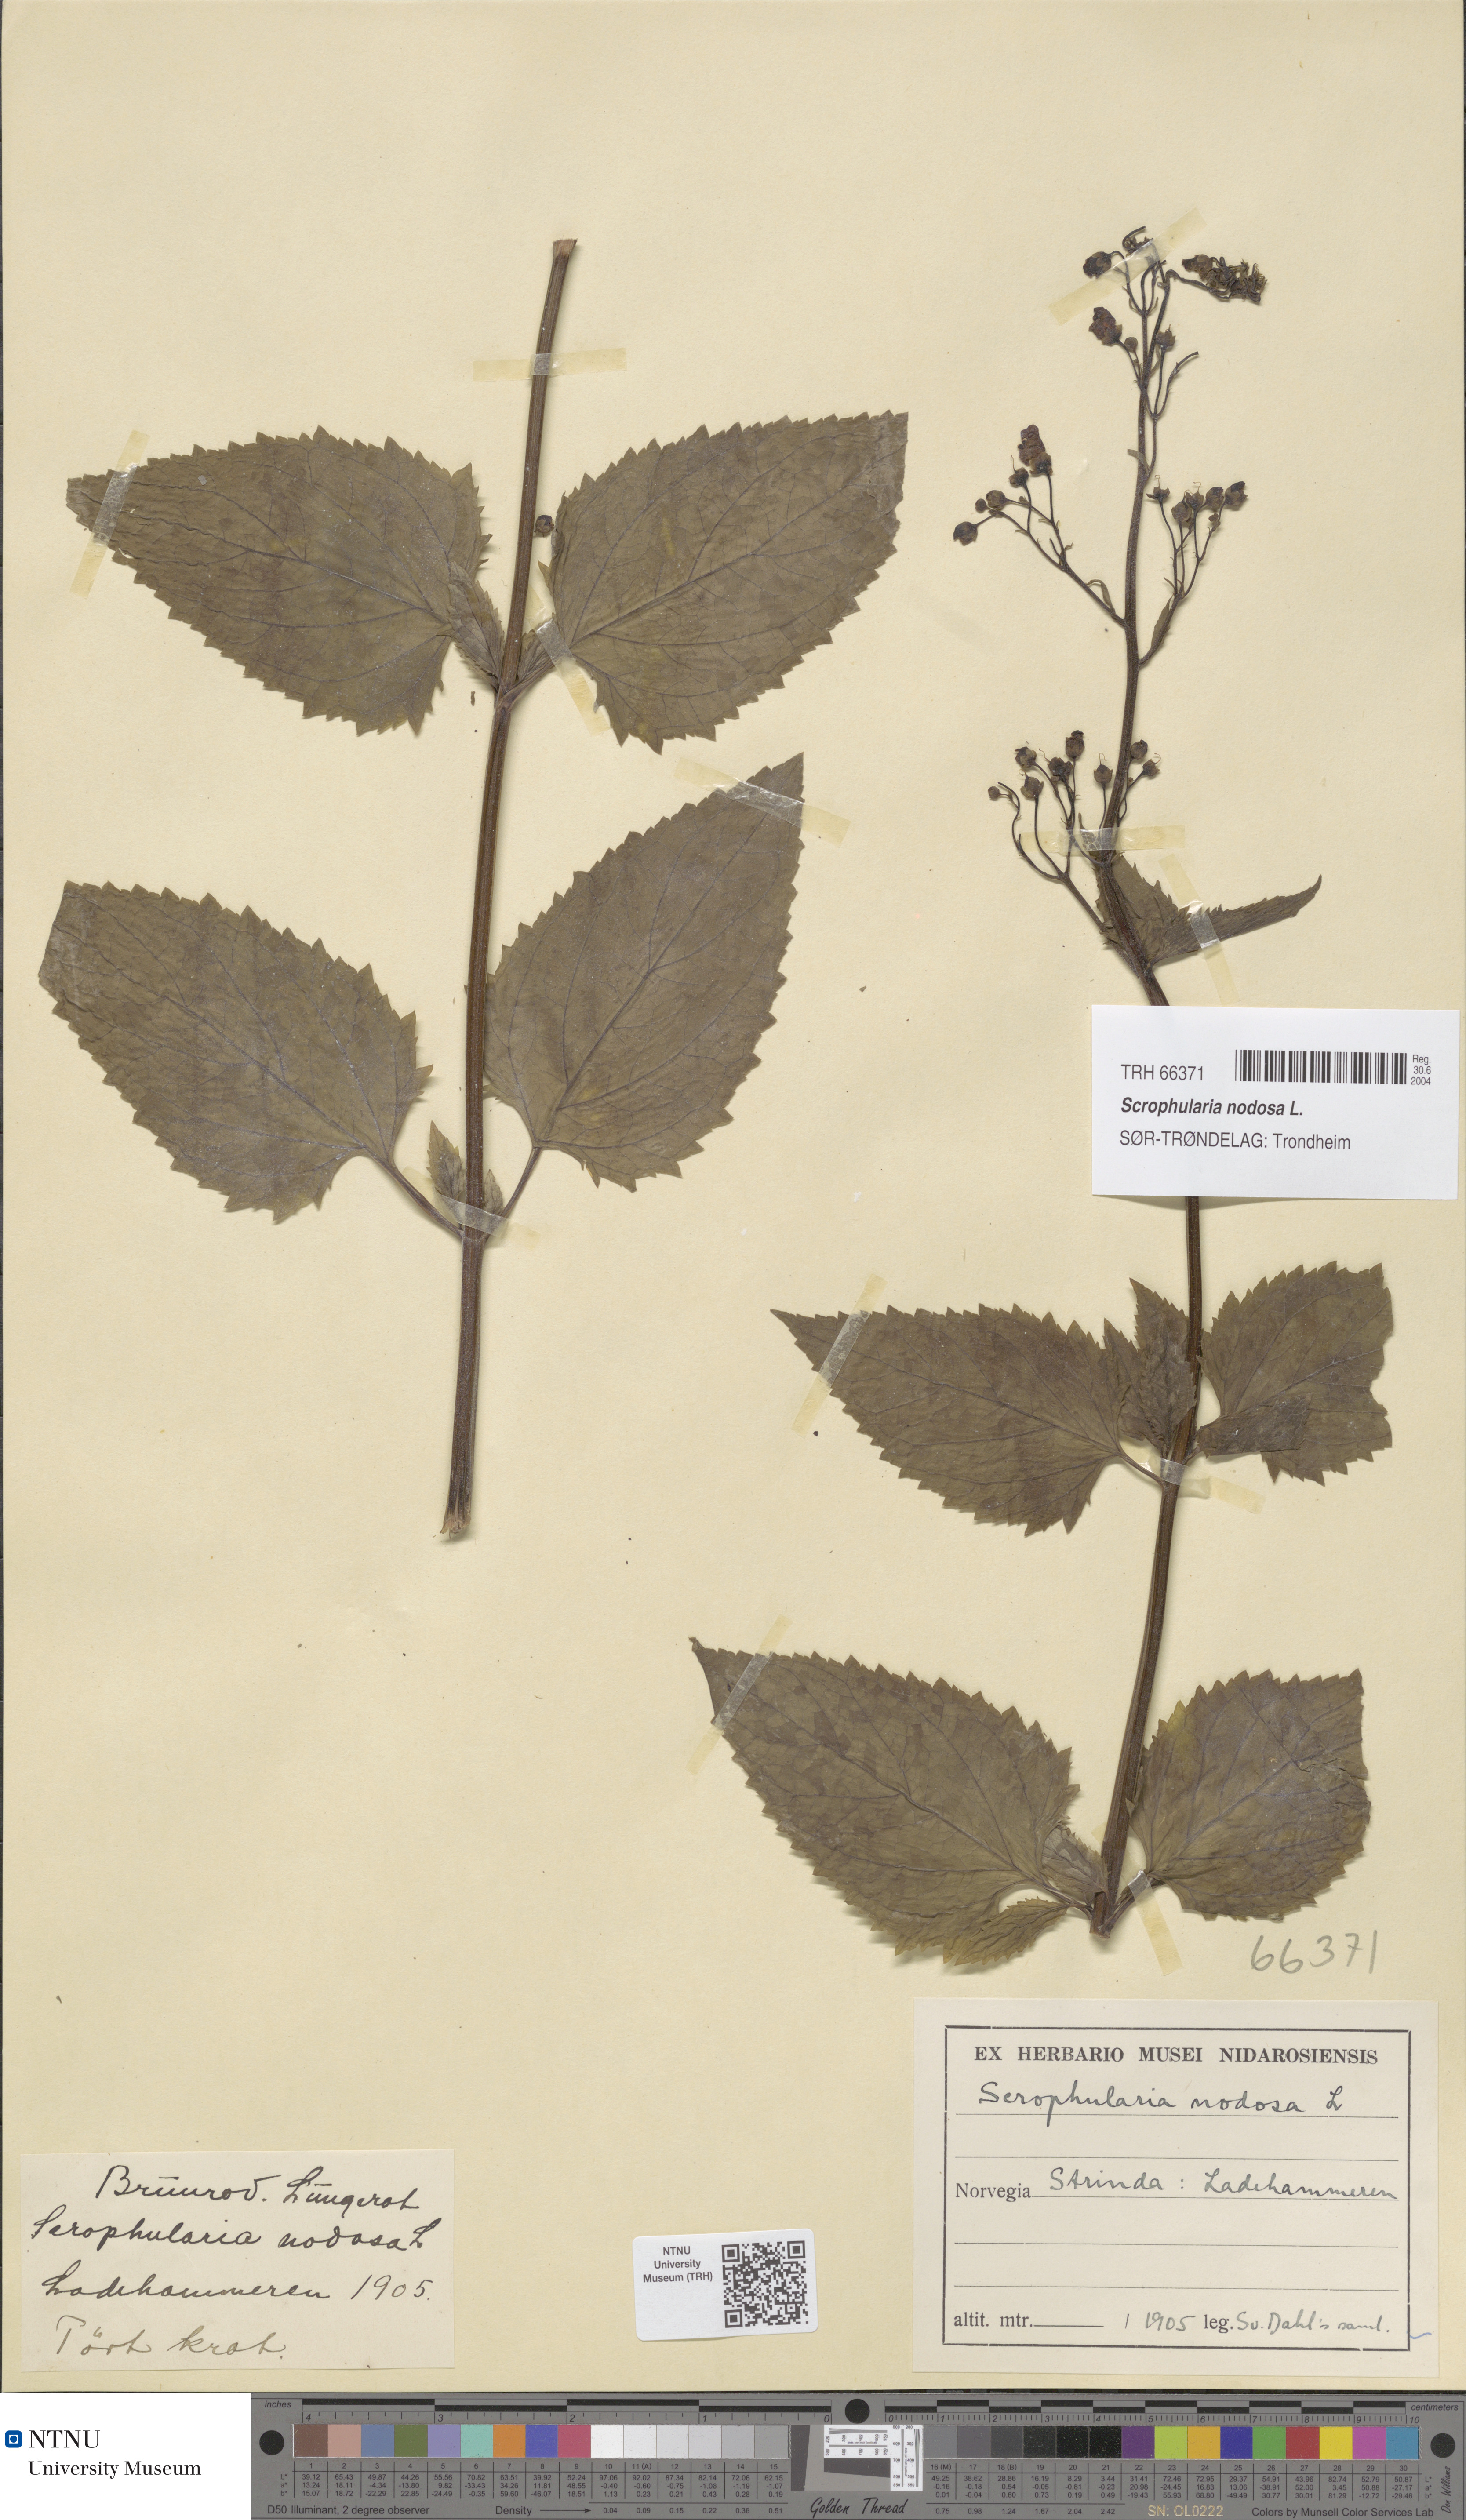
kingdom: Plantae
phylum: Tracheophyta
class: Magnoliopsida
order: Lamiales
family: Scrophulariaceae
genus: Scrophularia
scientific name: Scrophularia nodosa
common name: Common figwort
